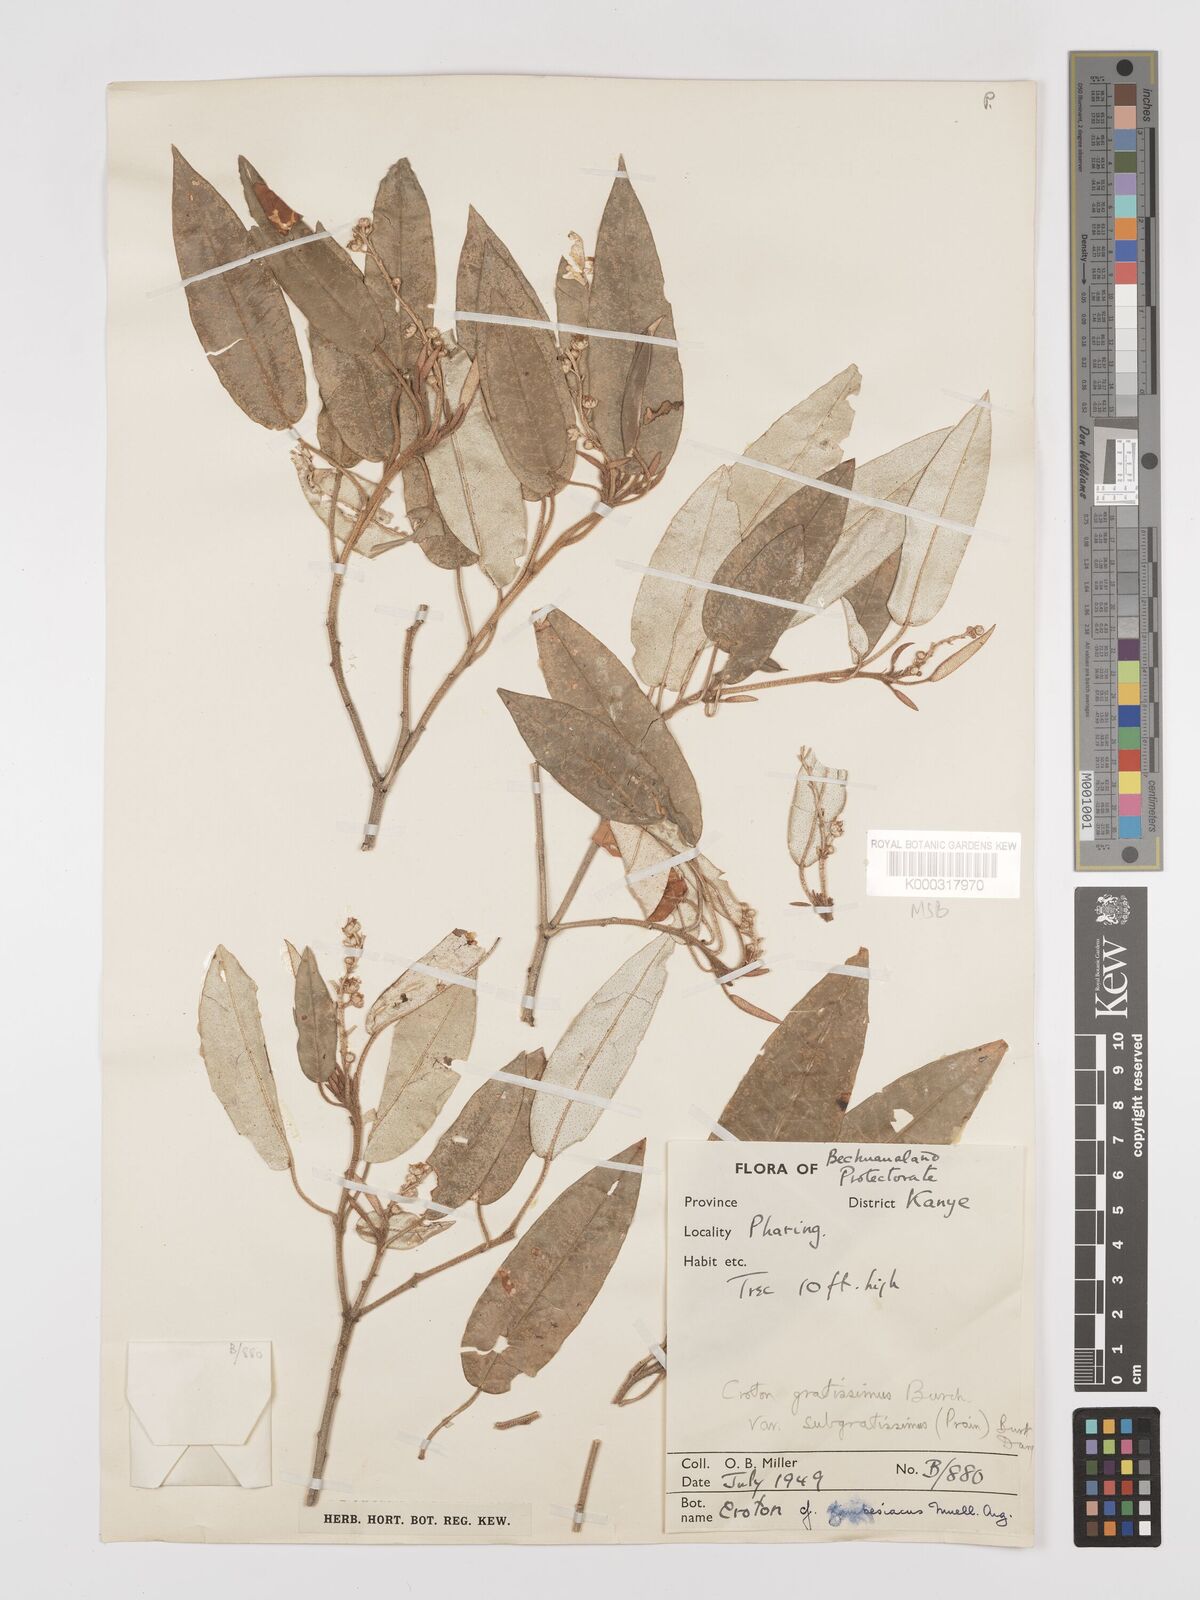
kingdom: Plantae
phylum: Tracheophyta
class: Magnoliopsida
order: Malpighiales
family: Euphorbiaceae
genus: Croton
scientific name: Croton gratissimus
